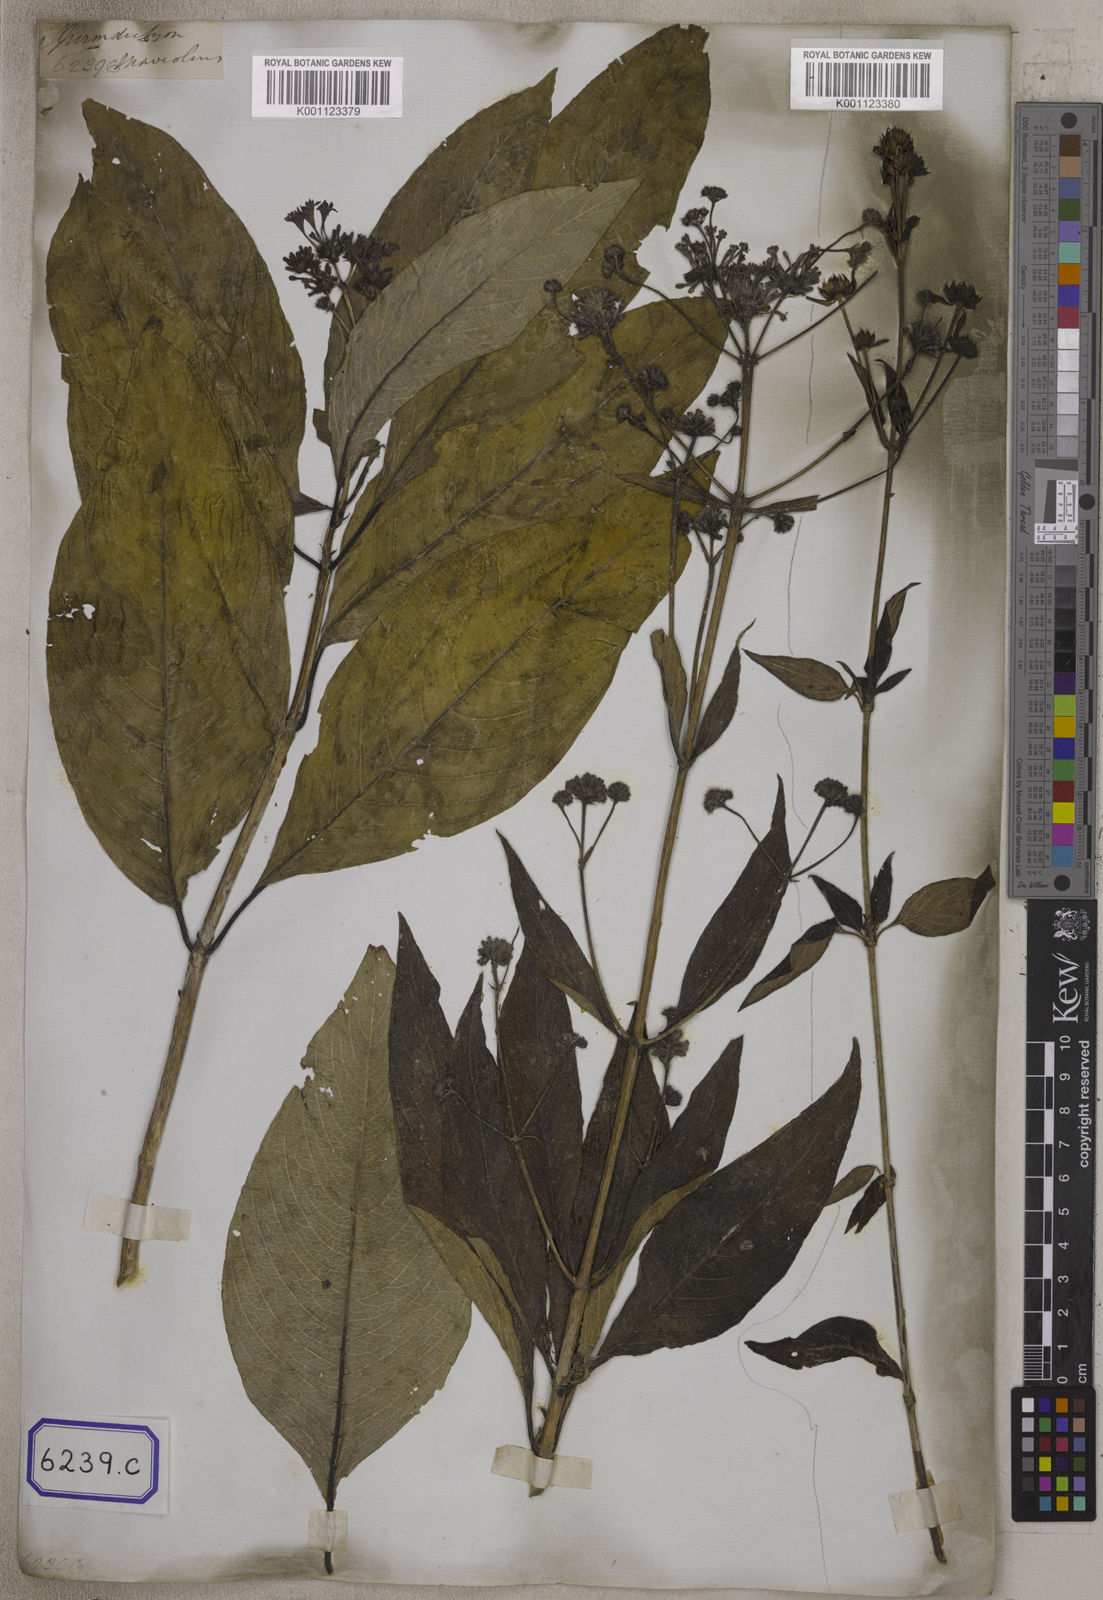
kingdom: Plantae
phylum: Tracheophyta
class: Magnoliopsida
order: Gentianales
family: Rubiaceae
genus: Spermadictyon
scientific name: Spermadictyon suaveolens
